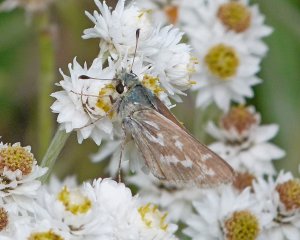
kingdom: Animalia
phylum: Arthropoda
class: Insecta
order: Lepidoptera
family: Hesperiidae
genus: Hesperia
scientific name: Hesperia juba
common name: Juba Skipper
